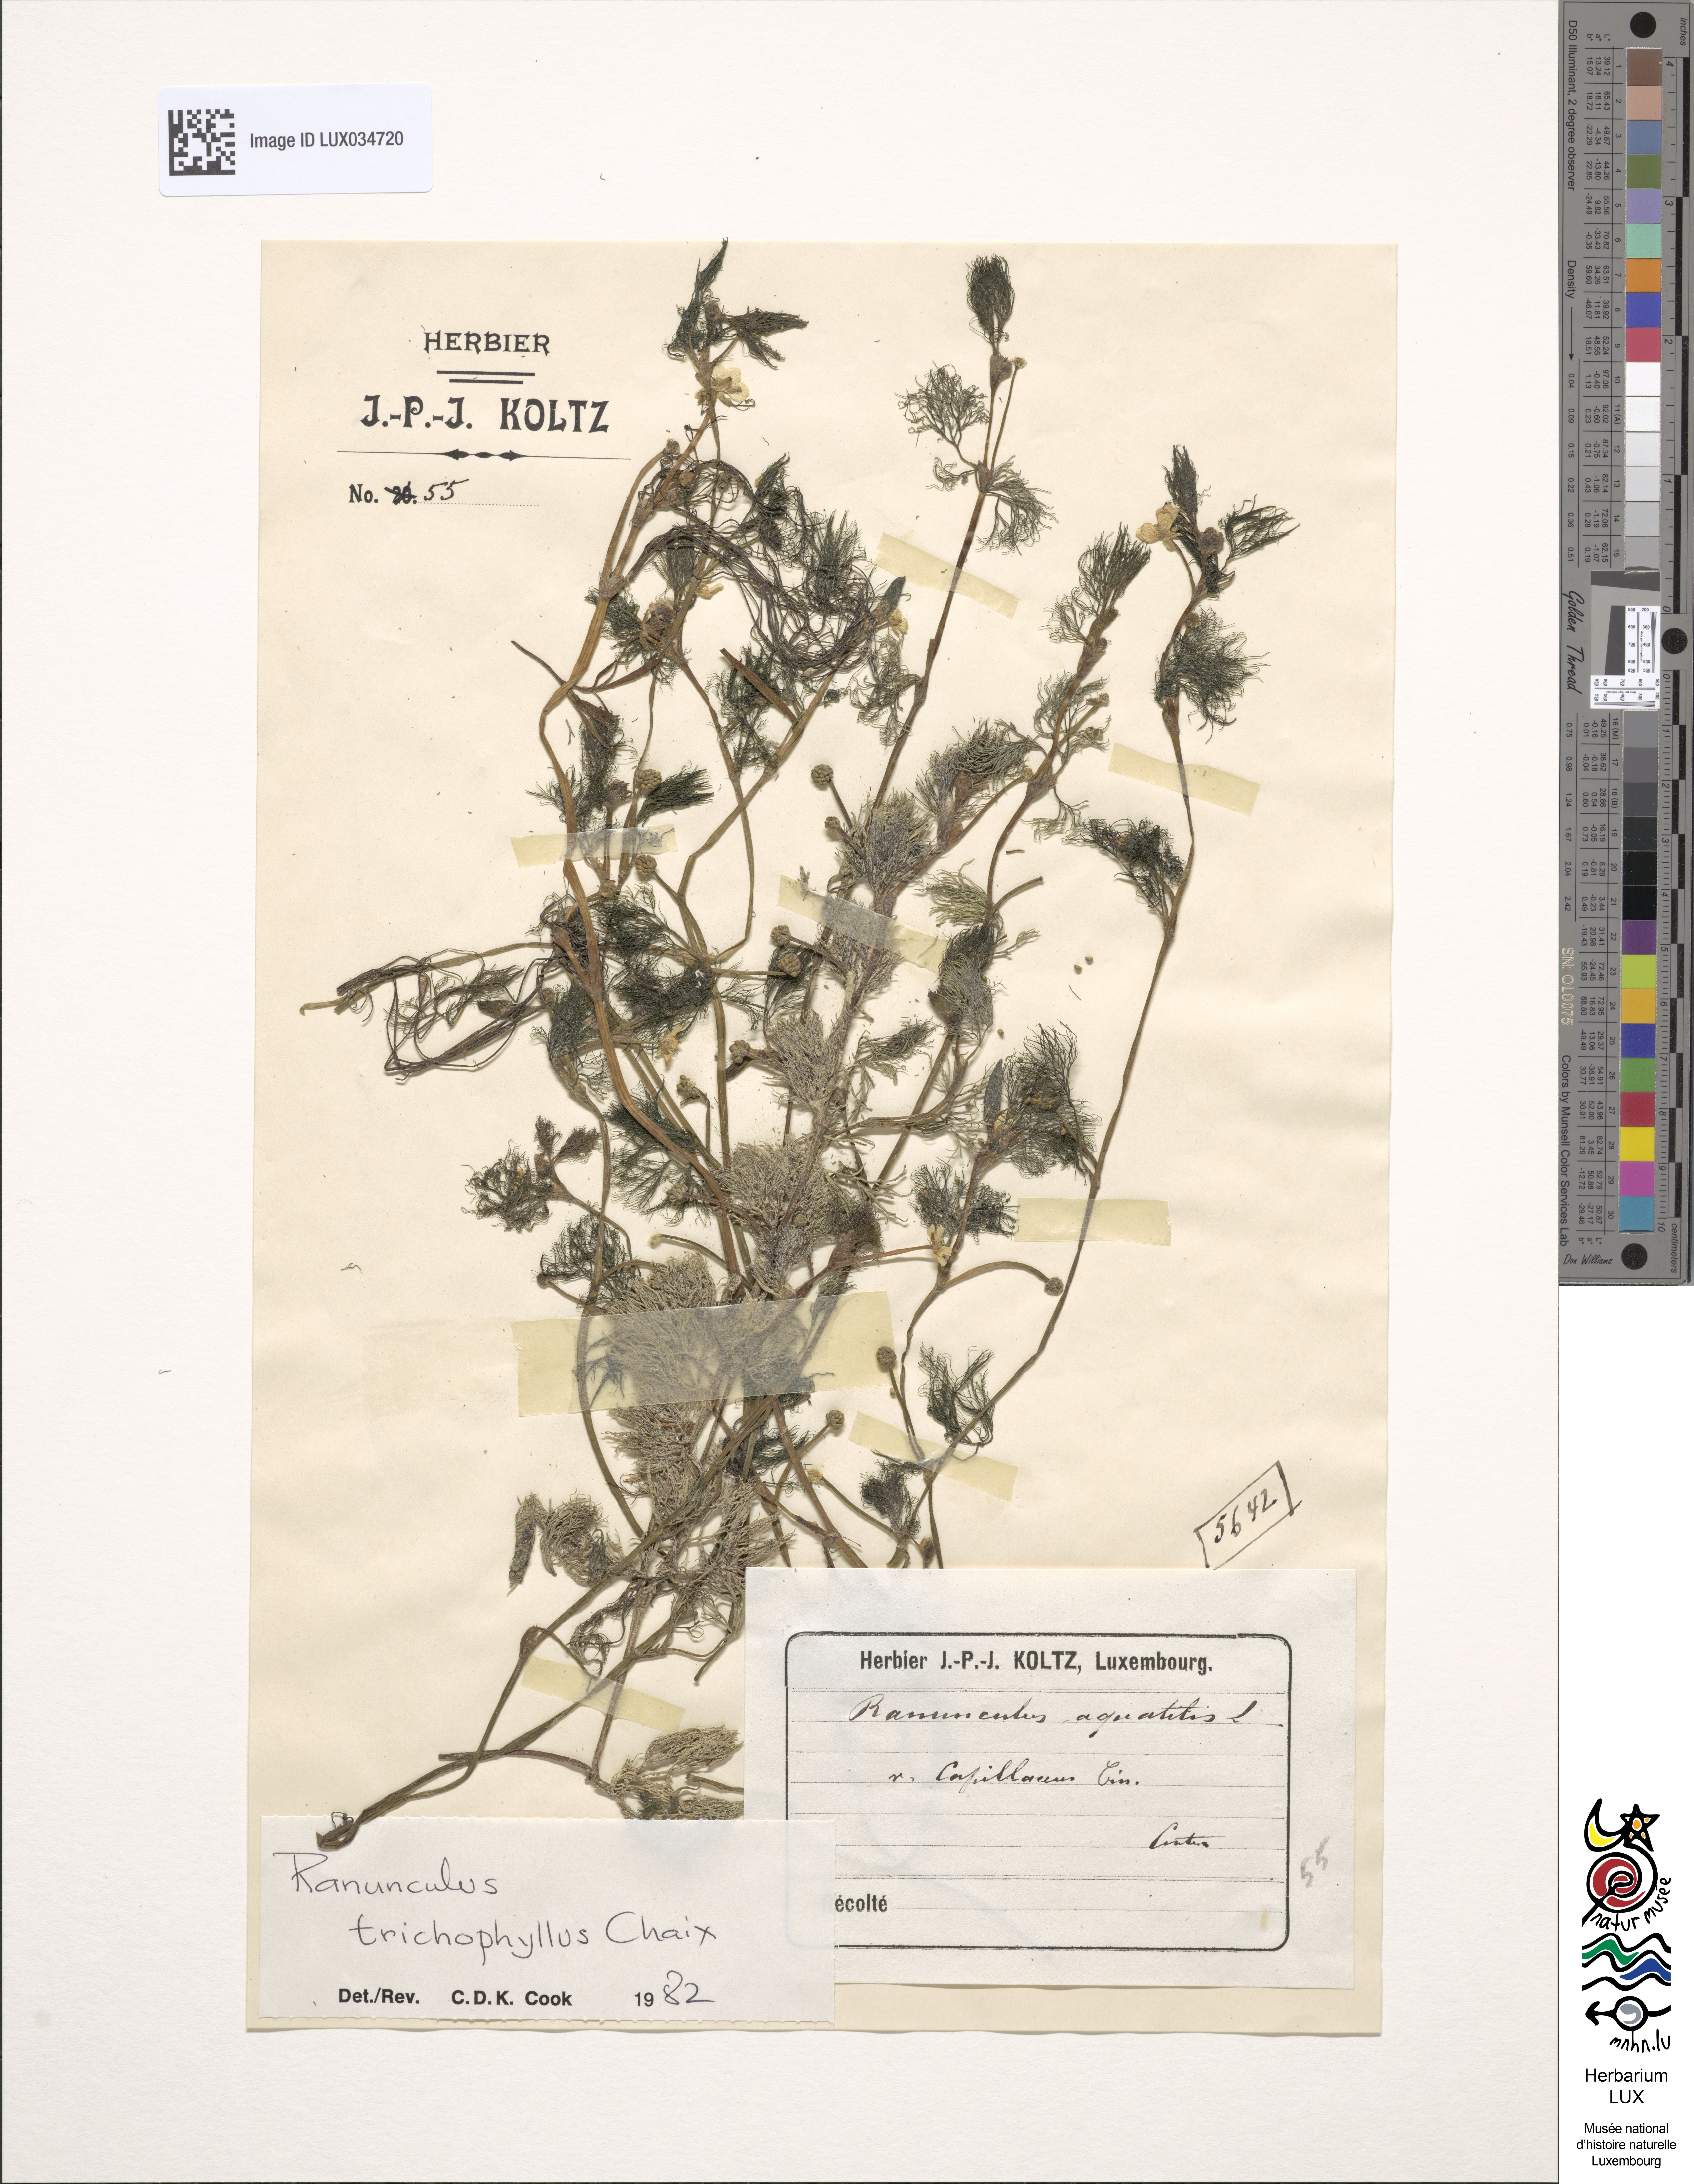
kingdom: Plantae
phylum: Tracheophyta
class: Magnoliopsida
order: Ranunculales
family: Ranunculaceae
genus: Ranunculus
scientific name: Ranunculus trichophyllus
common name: Thread-leaved water-crowfoot
